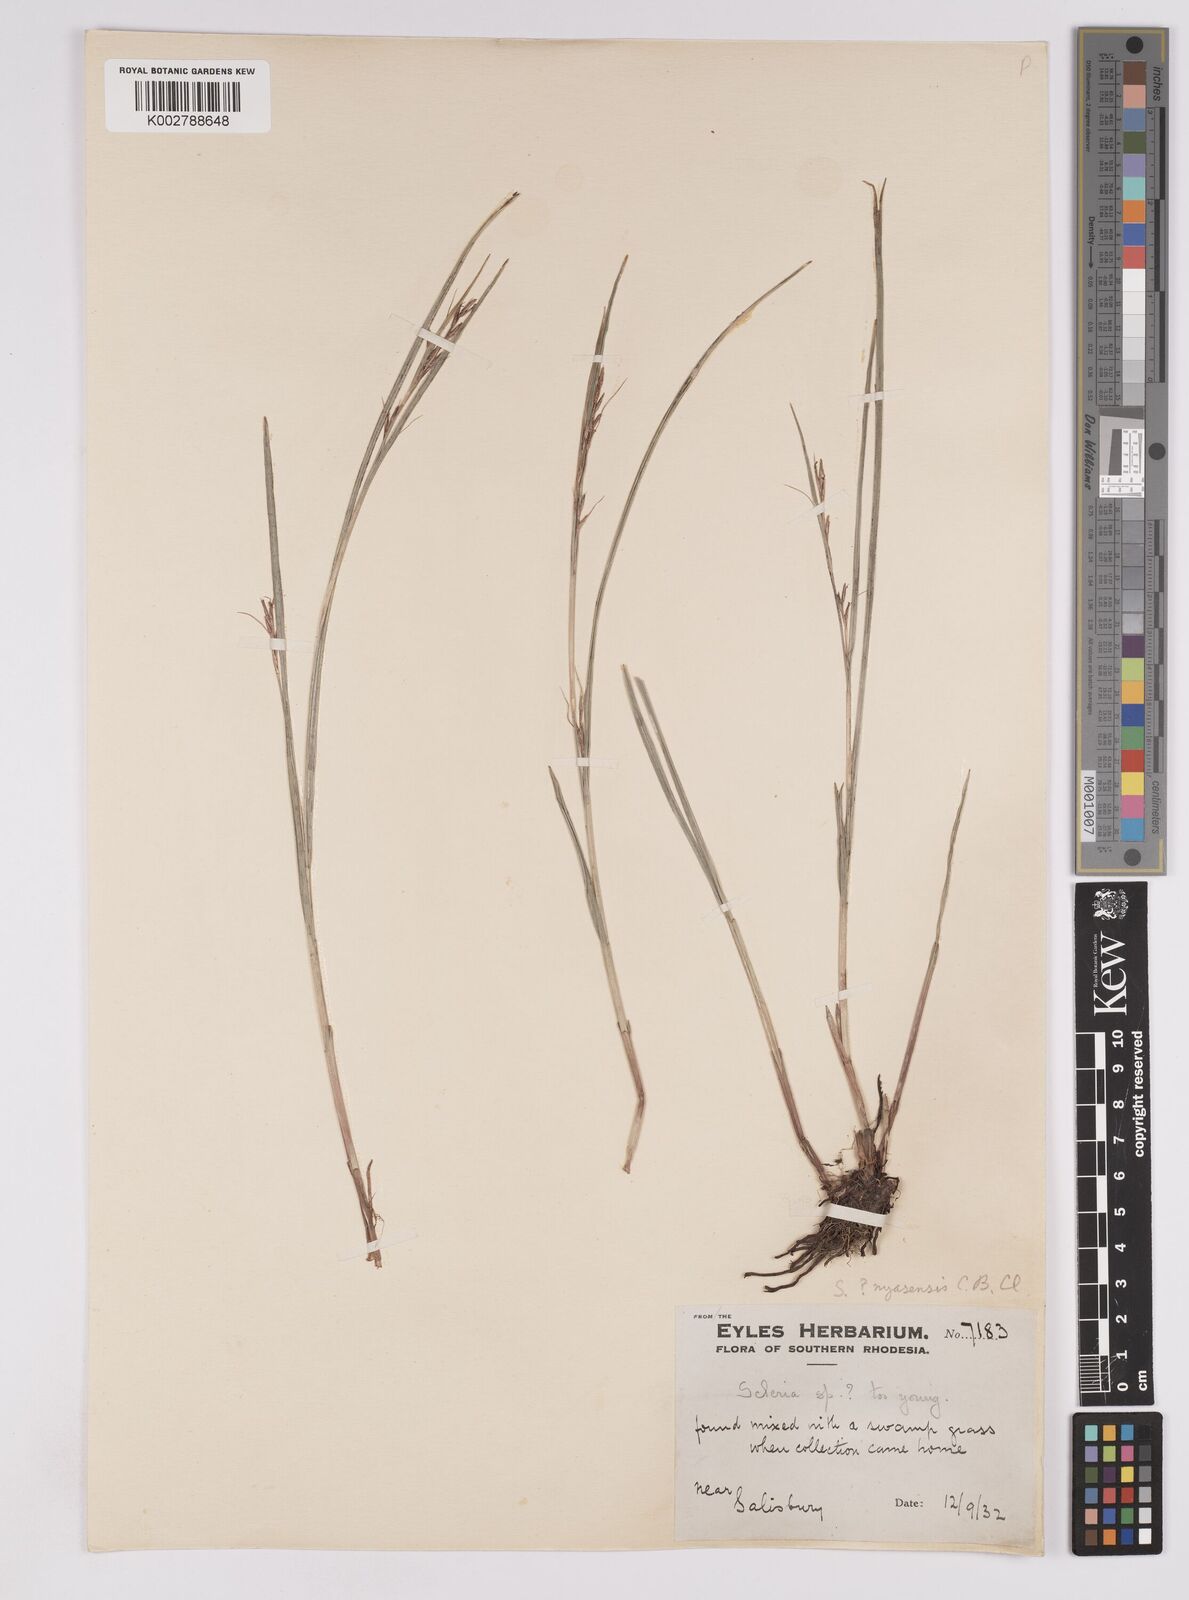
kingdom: Plantae
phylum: Tracheophyta
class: Liliopsida
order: Poales
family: Cyperaceae
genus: Scleria
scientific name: Scleria
